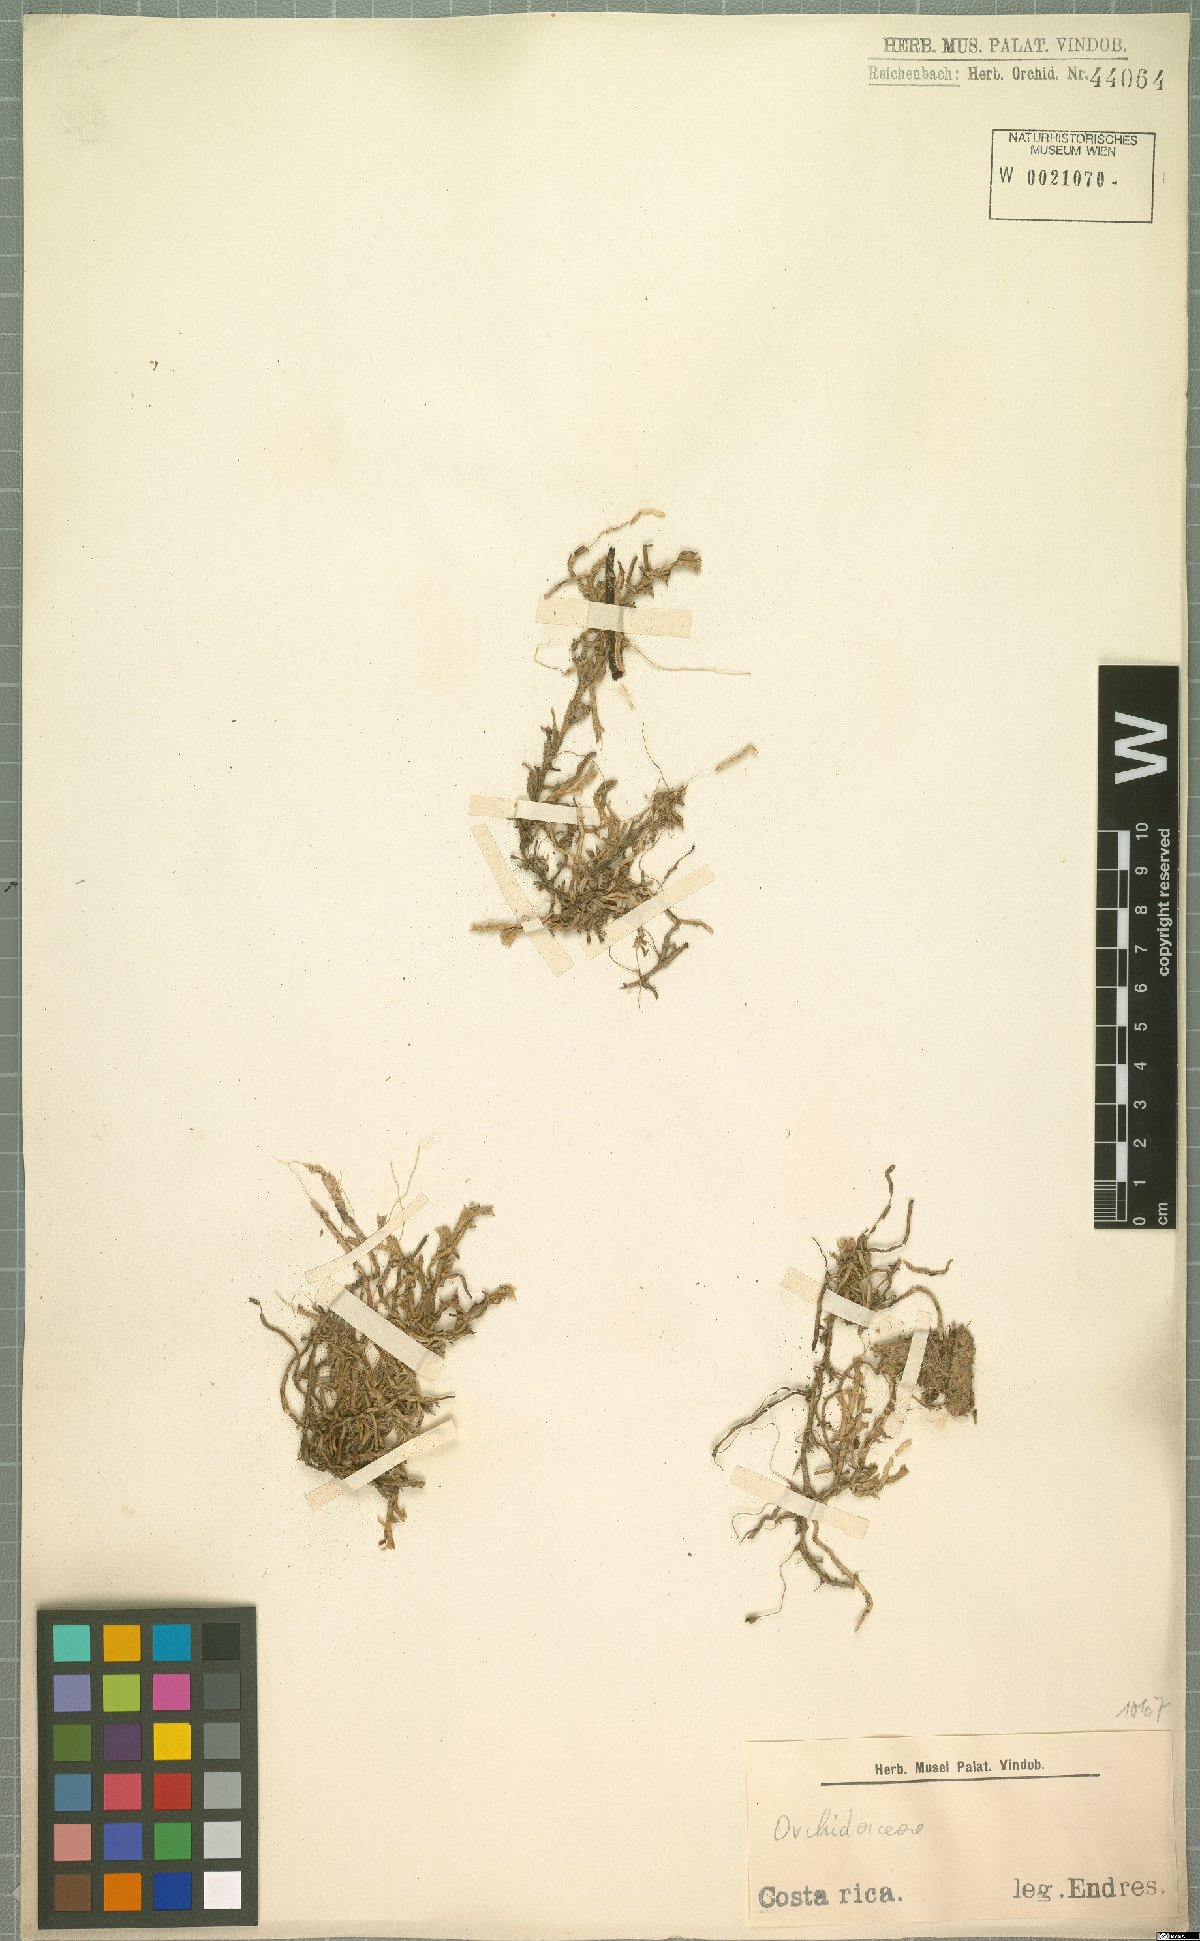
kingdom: Plantae
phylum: Tracheophyta
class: Liliopsida
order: Asparagales
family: Orchidaceae
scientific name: Orchidaceae
